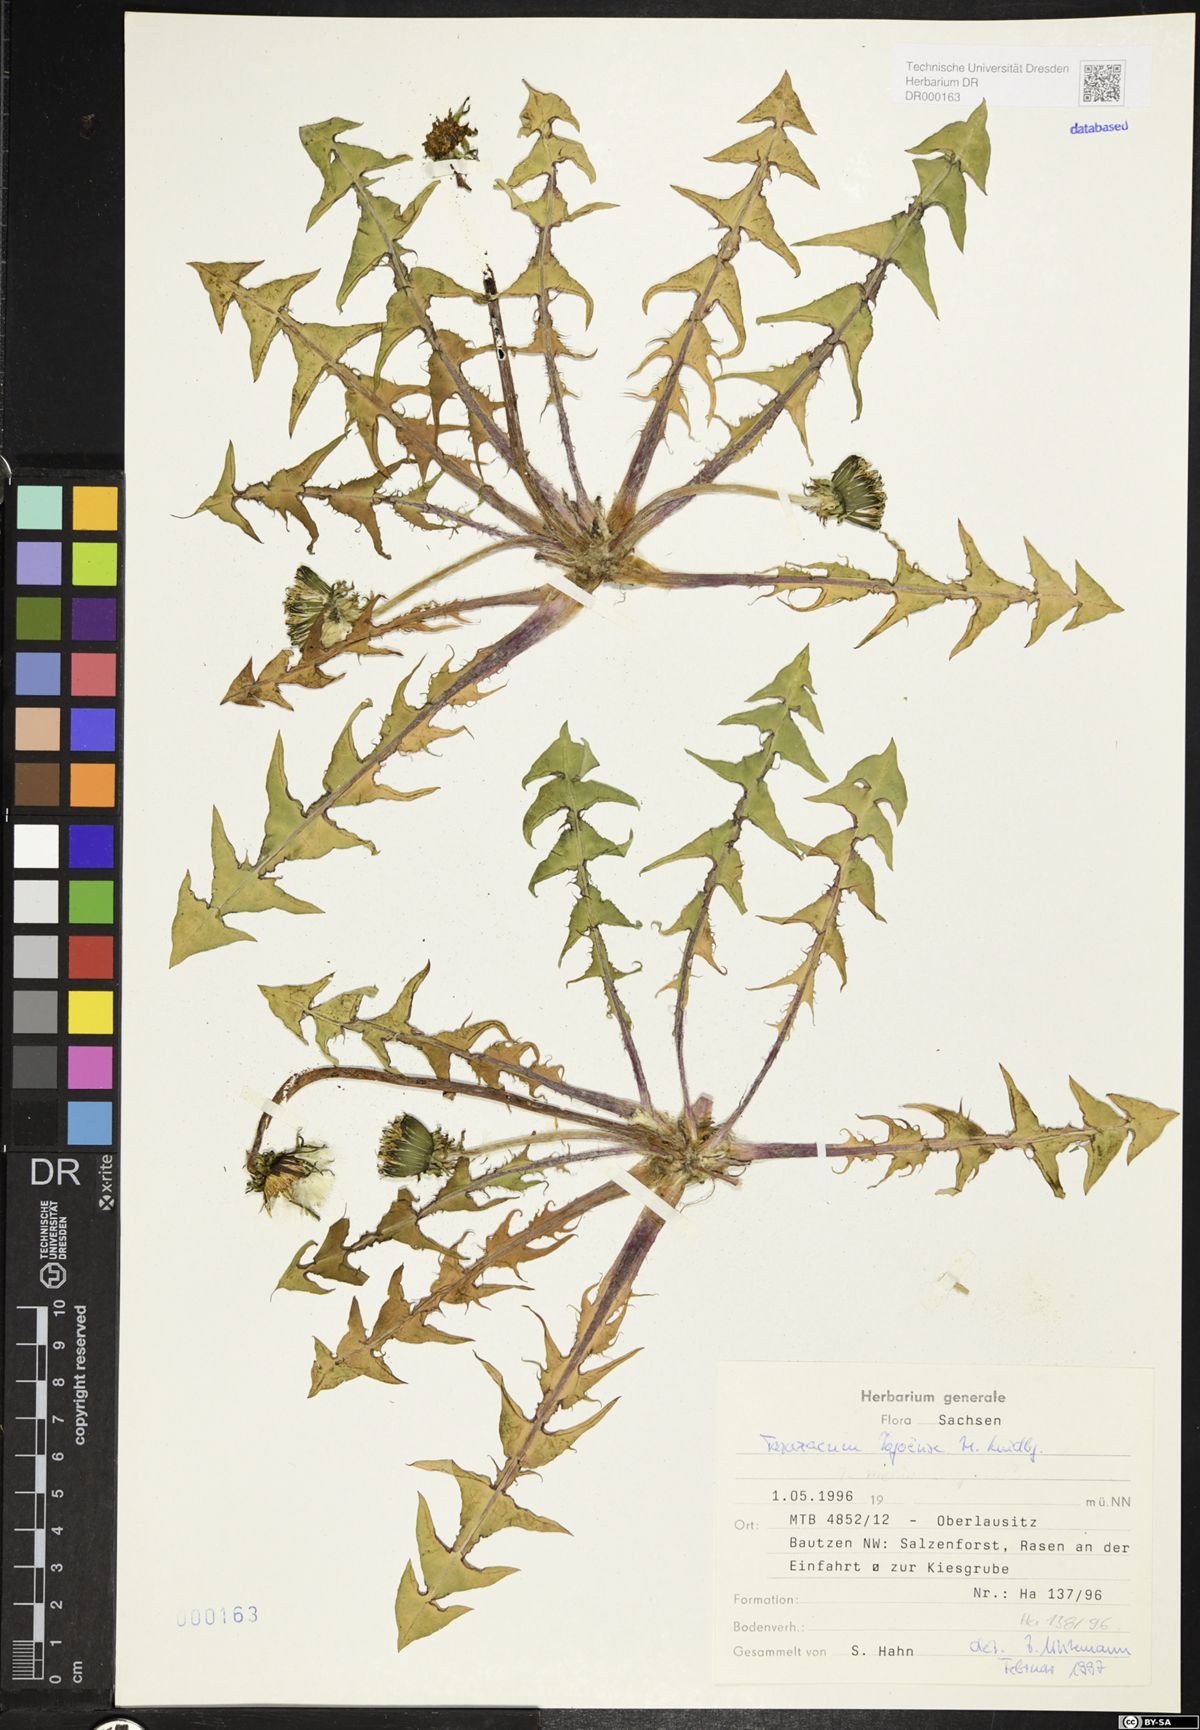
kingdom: Plantae
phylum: Tracheophyta
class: Magnoliopsida
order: Asterales
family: Asteraceae
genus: Taraxacum
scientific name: Taraxacum debrayi
